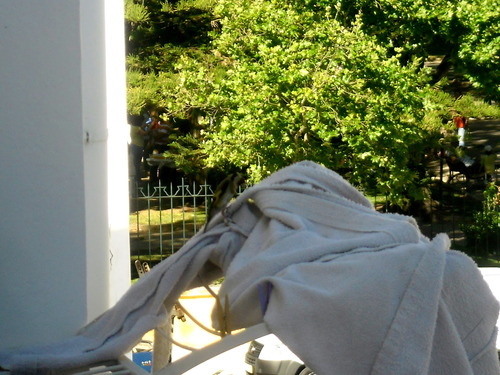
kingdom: Animalia
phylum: Chordata
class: Aves
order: Passeriformes
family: Fringillidae
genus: Carduelis
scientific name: Carduelis carduelis
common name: European goldfinch
